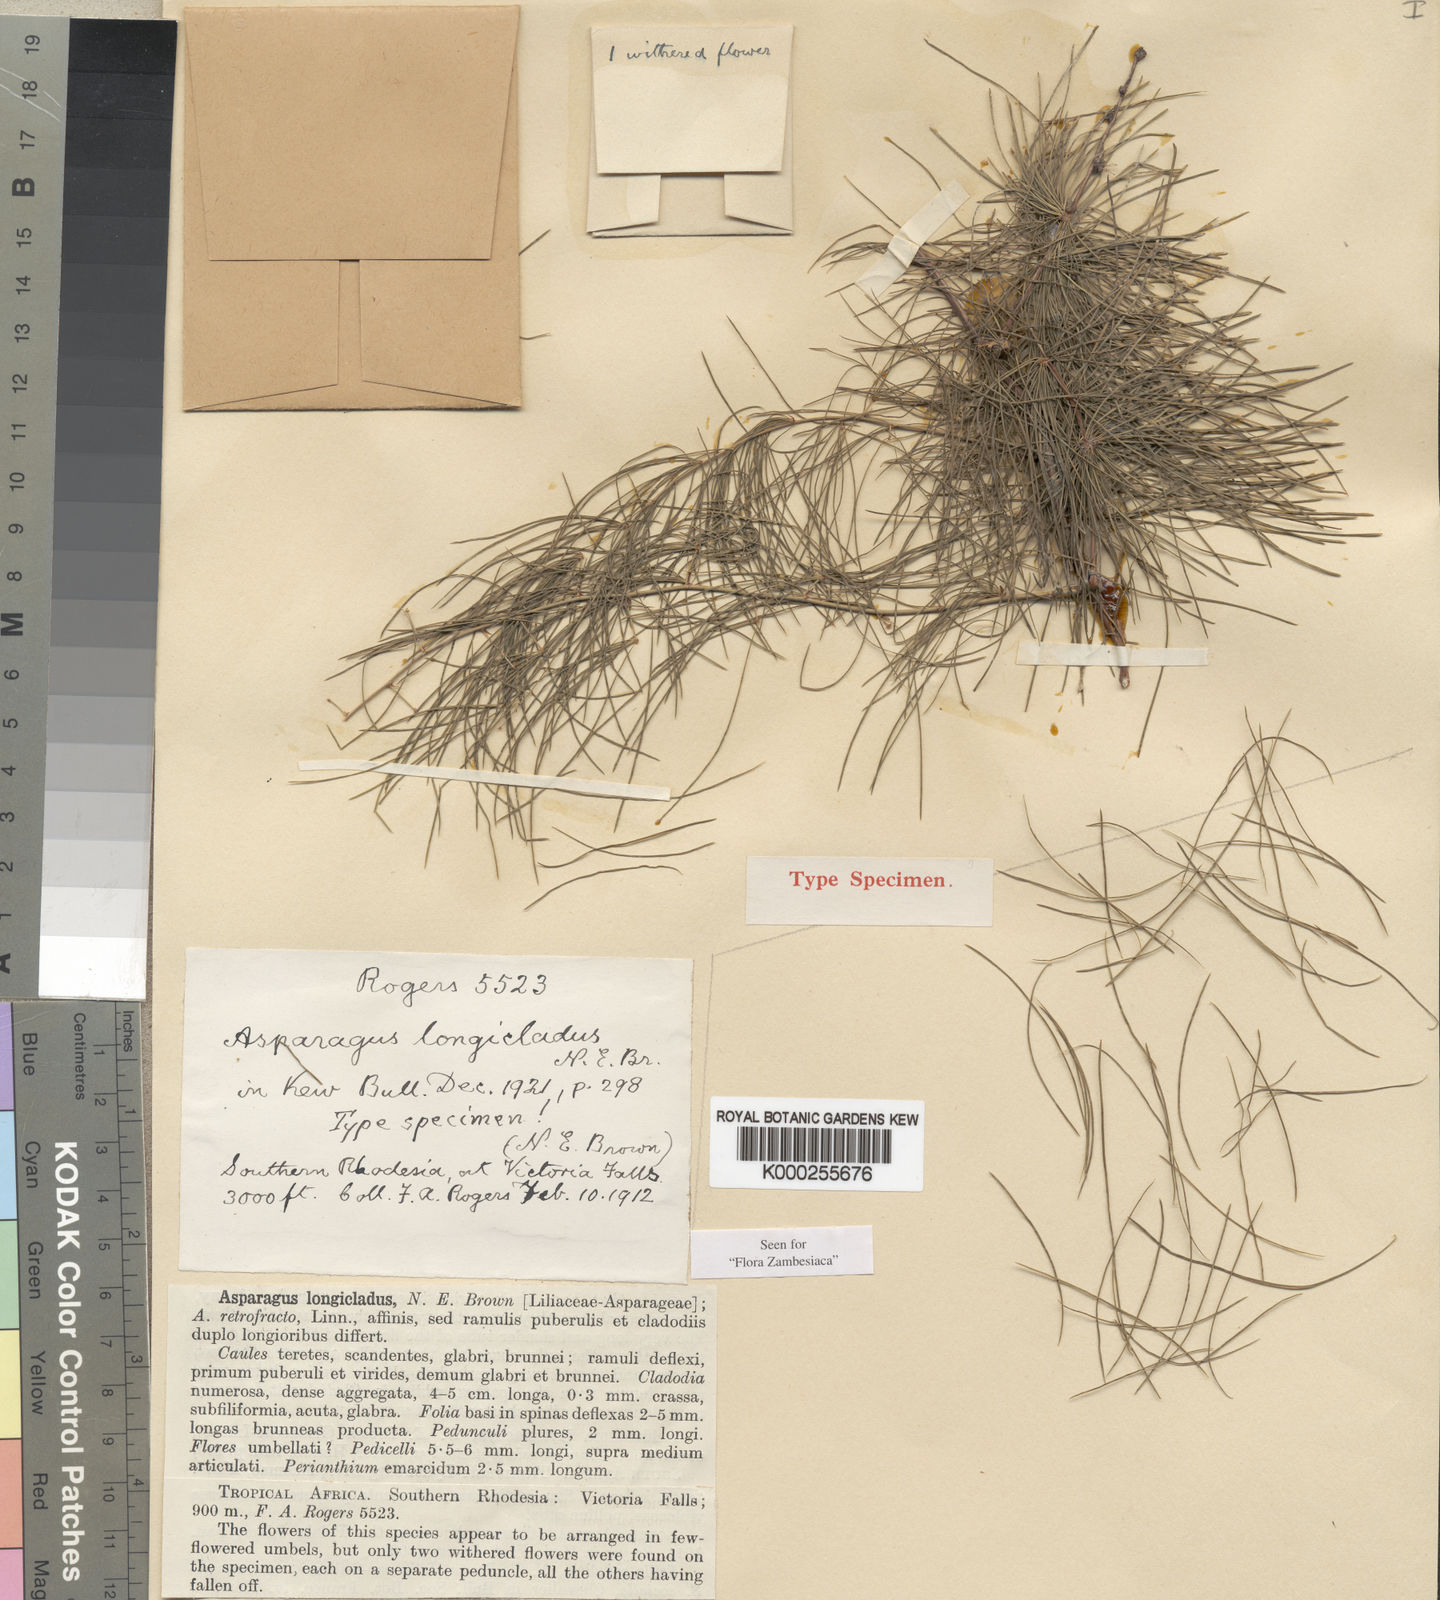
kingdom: Plantae
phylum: Tracheophyta
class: Liliopsida
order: Asparagales
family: Asparagaceae
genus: Asparagus
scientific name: Asparagus longicladus
